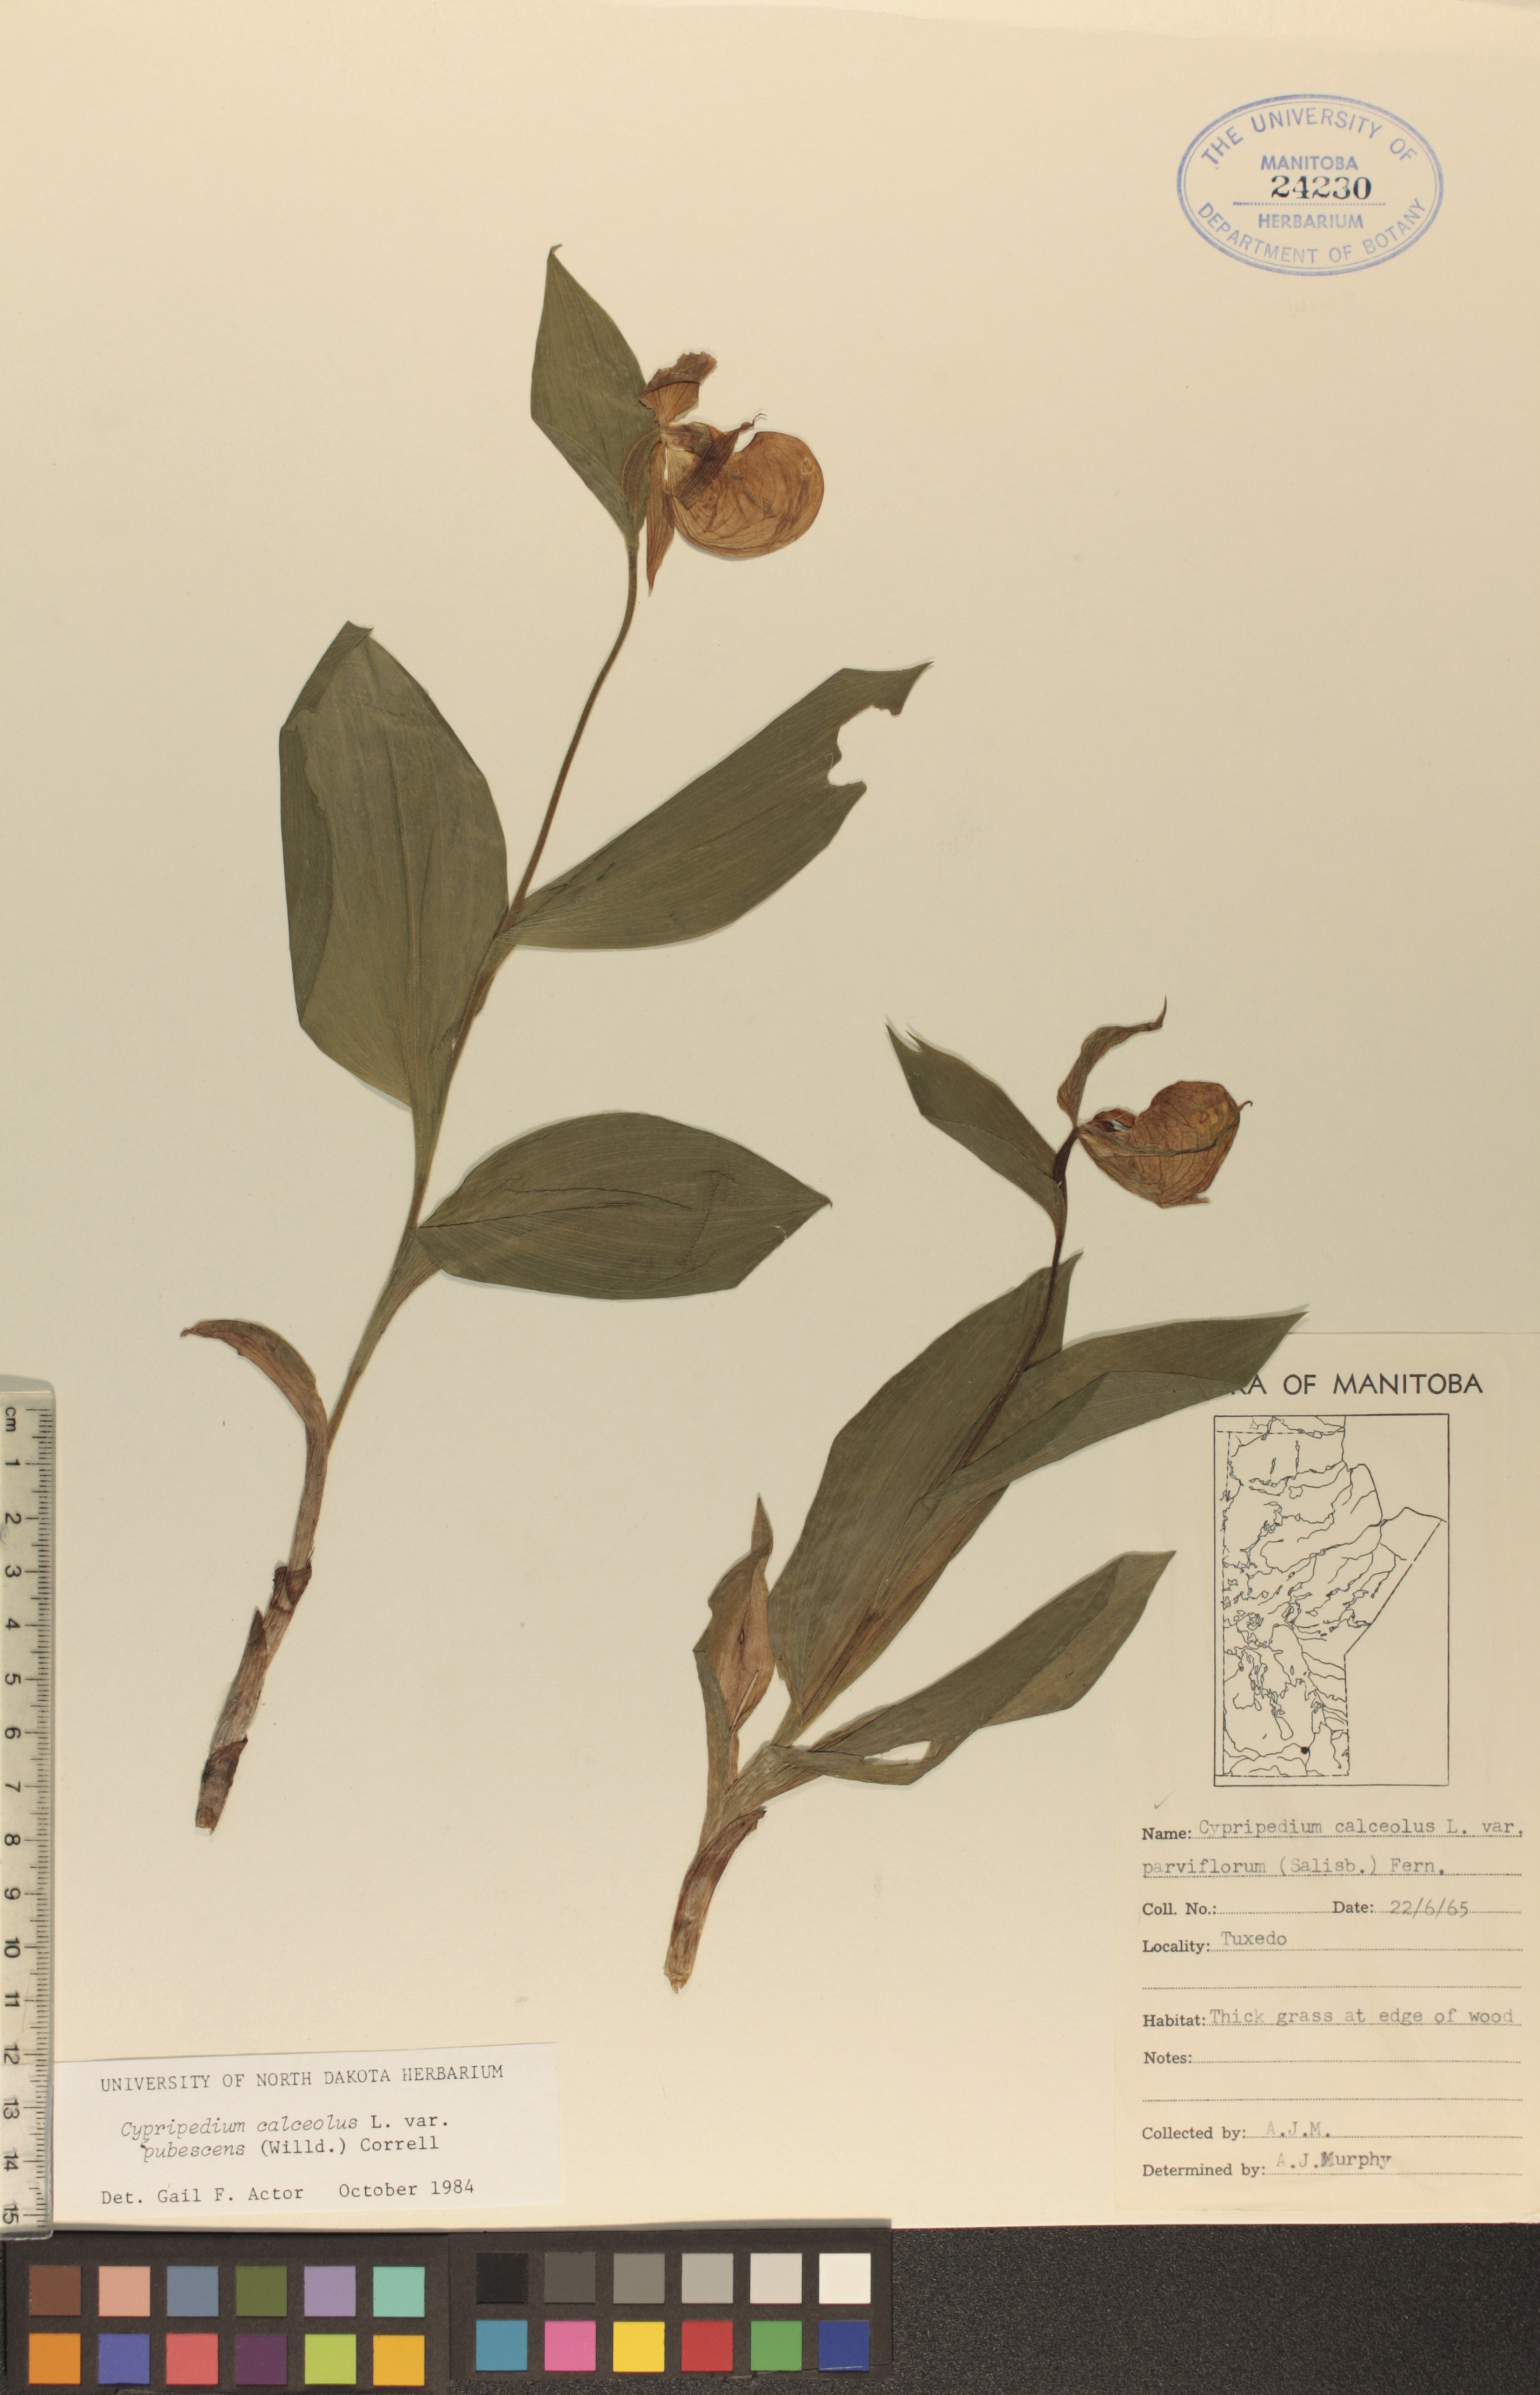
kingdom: Plantae
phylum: Tracheophyta
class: Liliopsida
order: Asparagales
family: Orchidaceae
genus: Cypripedium
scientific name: Cypripedium parviflorum
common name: American yellow lady's-slipper
